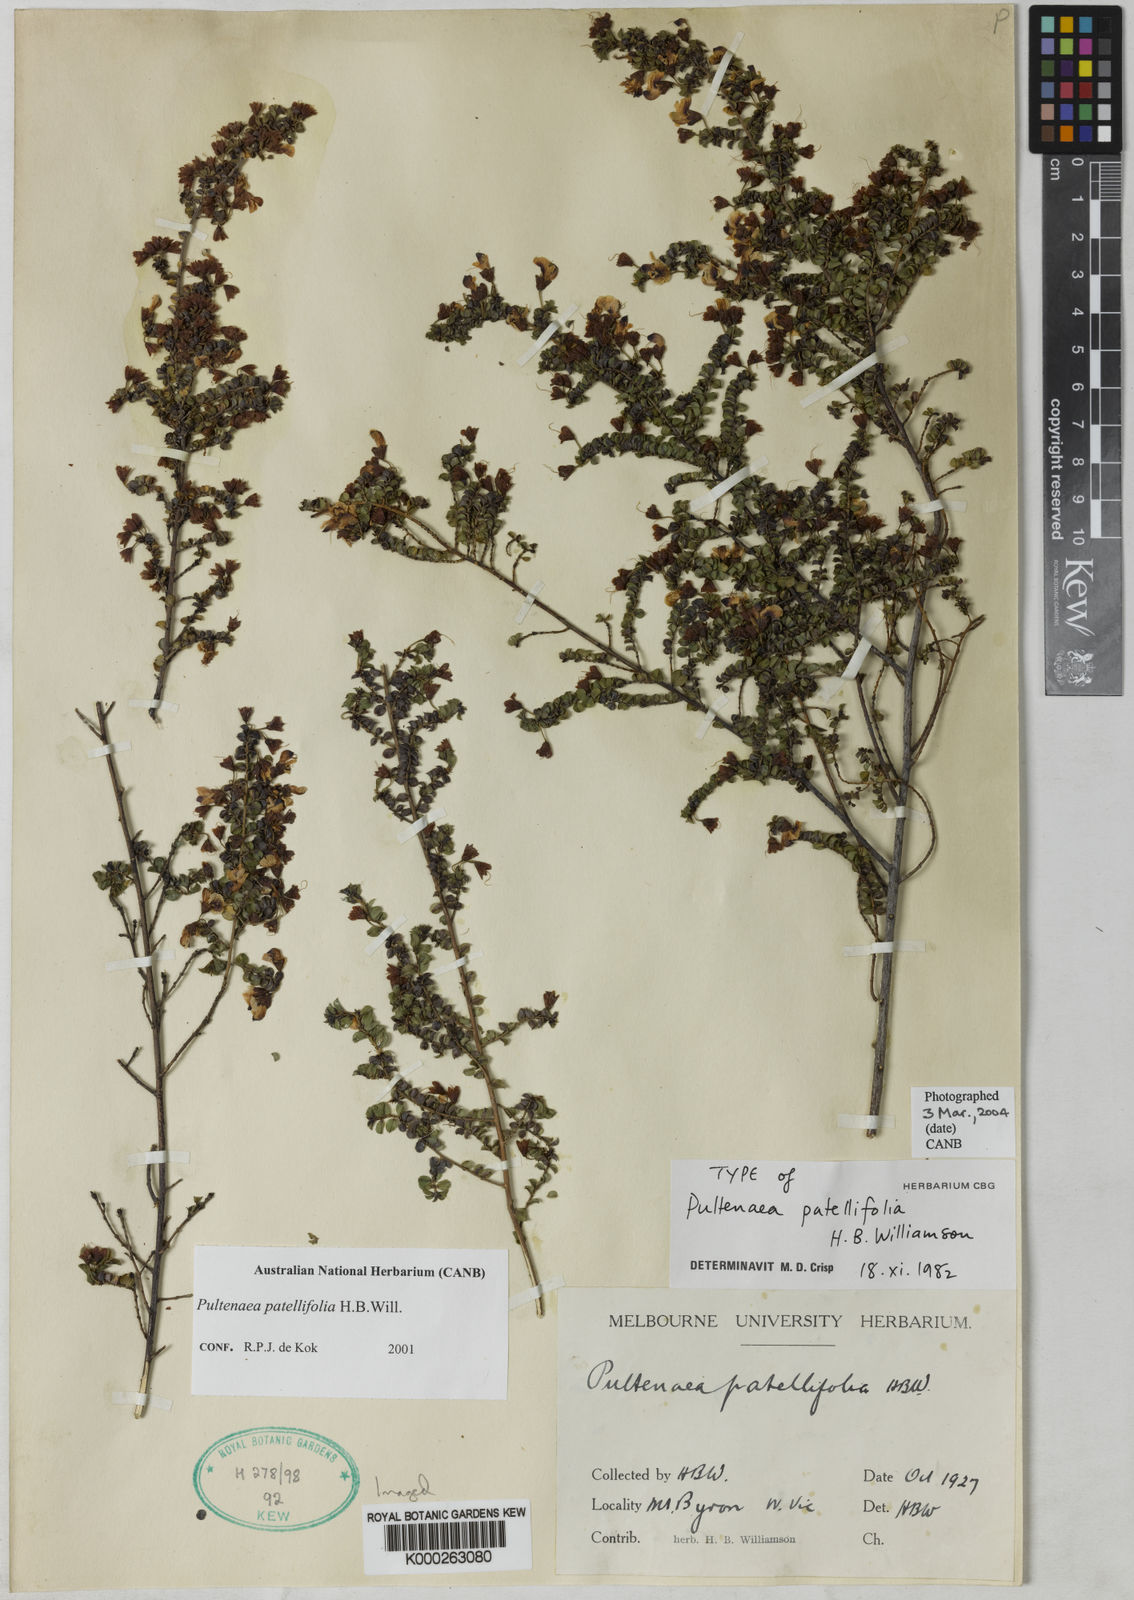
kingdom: Plantae
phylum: Tracheophyta
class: Magnoliopsida
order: Fabales
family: Fabaceae
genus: Pultenaea
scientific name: Pultenaea patellifolia
